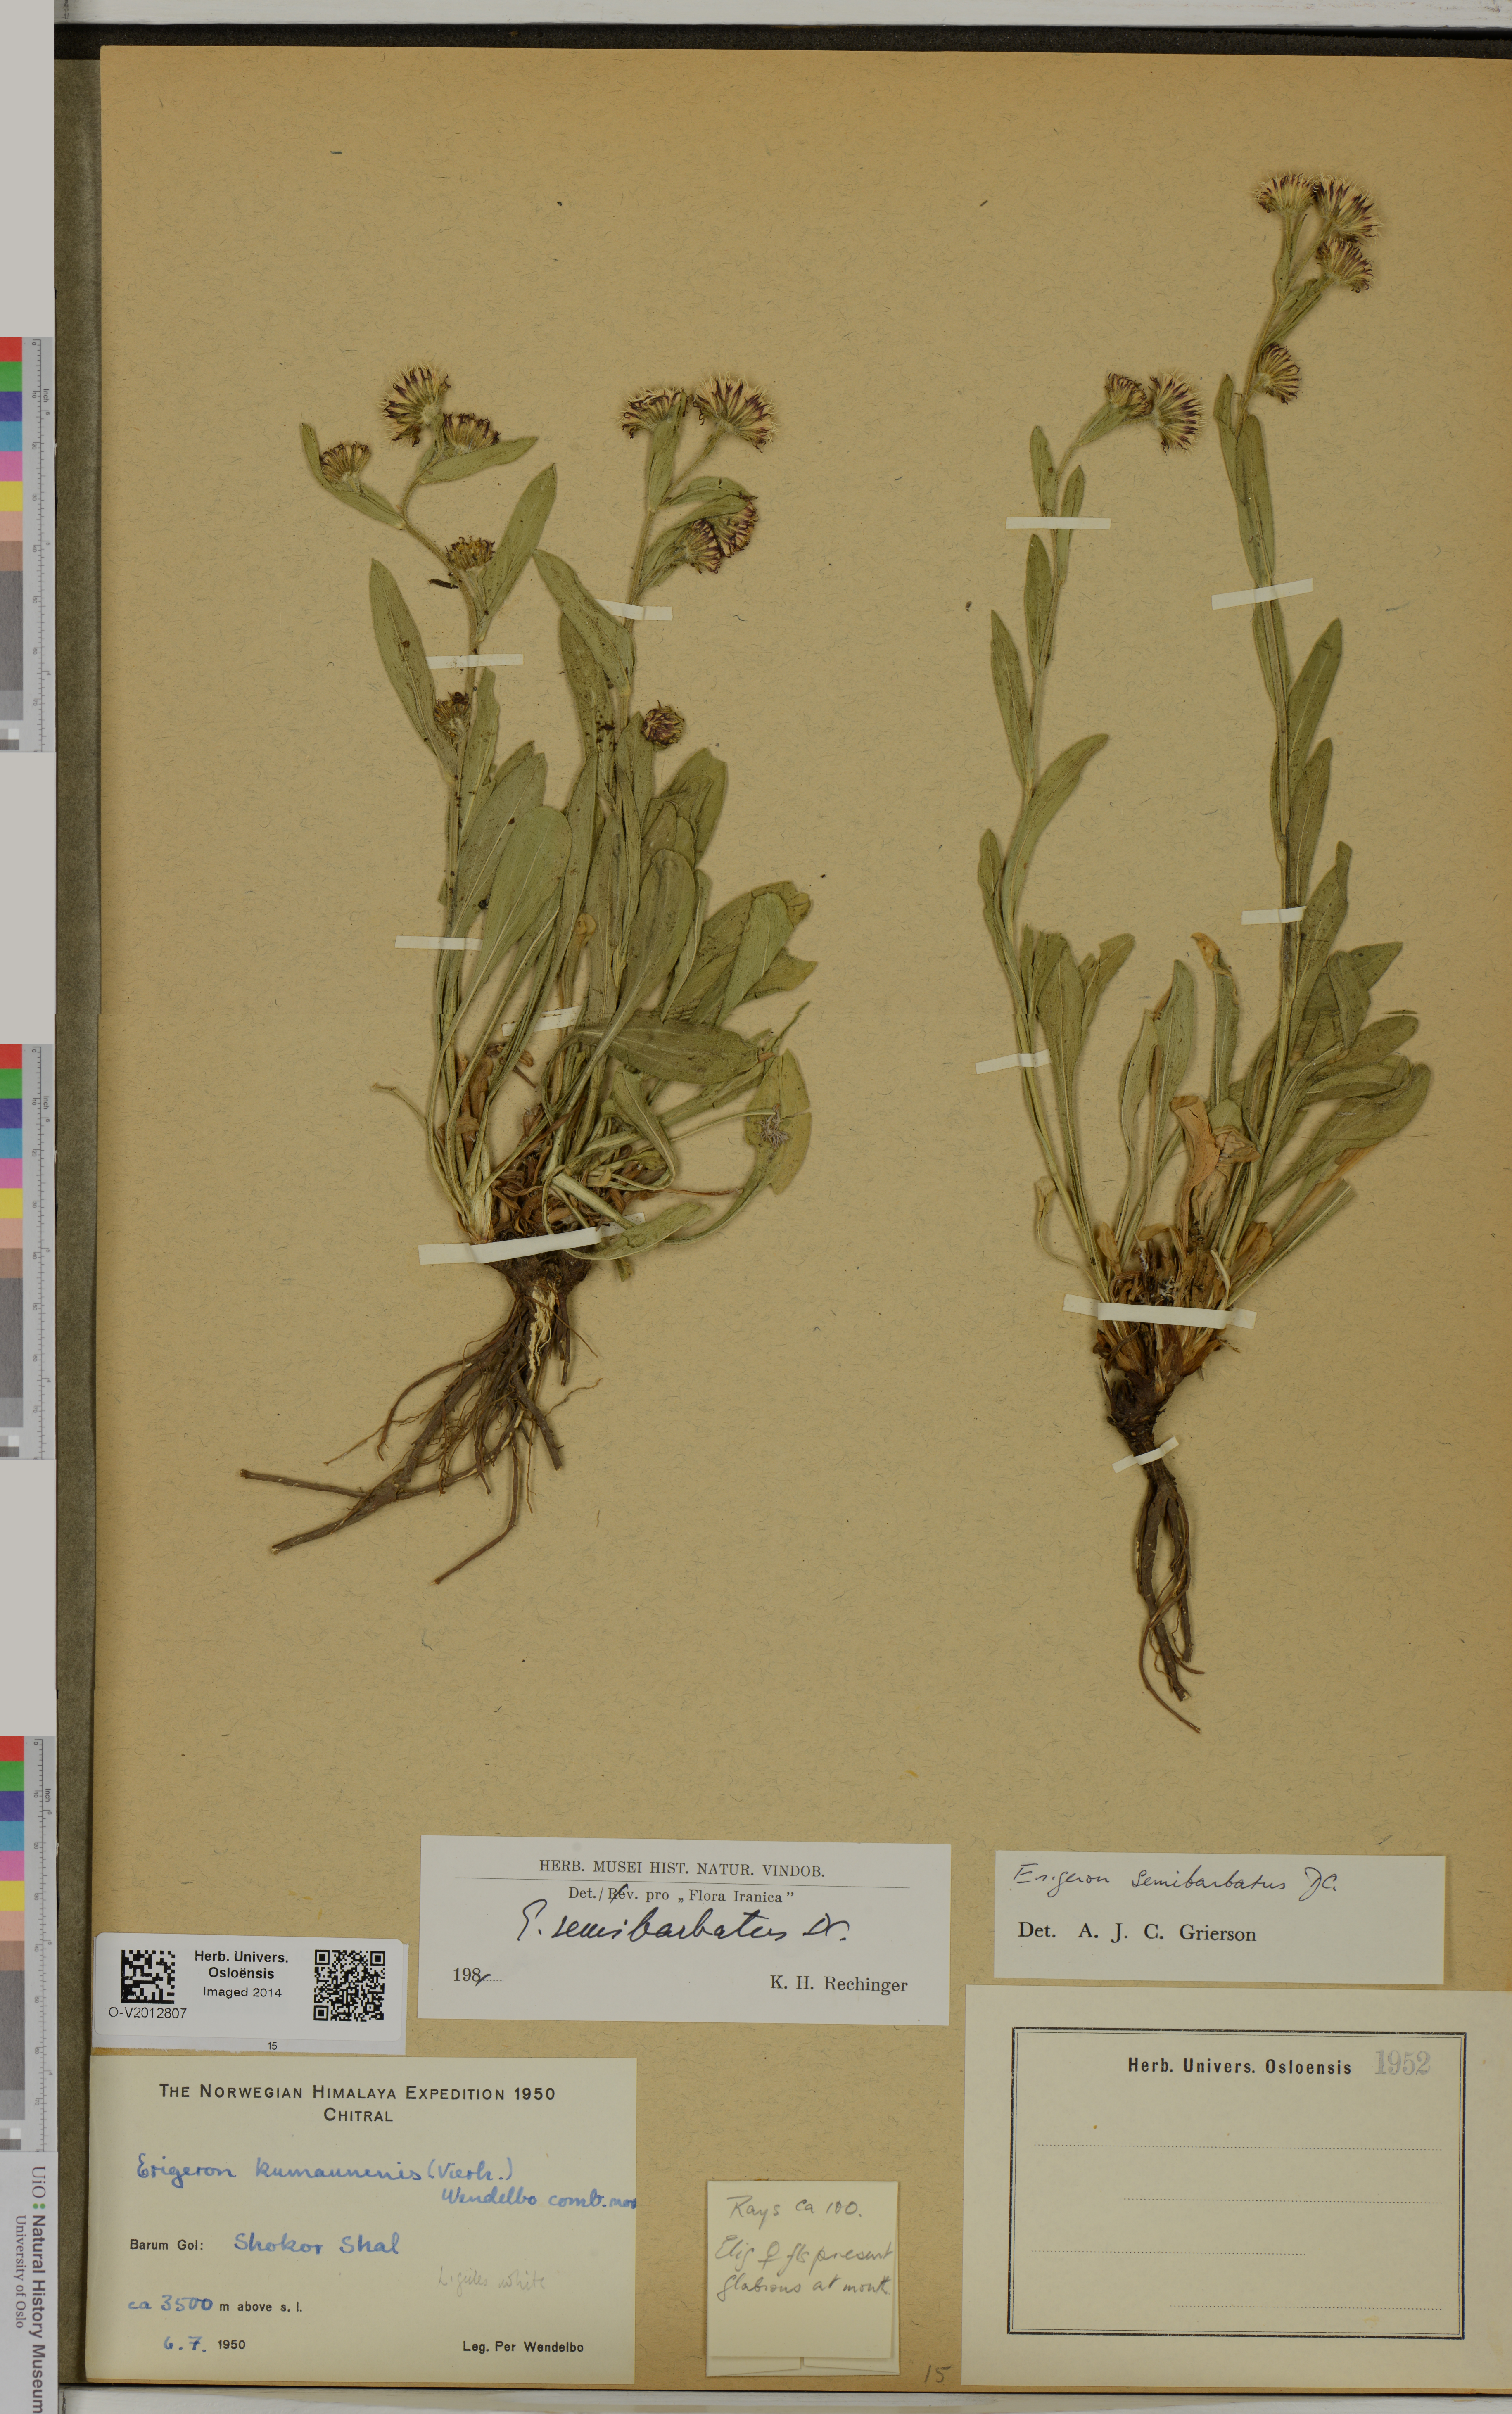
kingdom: Plantae
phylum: Tracheophyta
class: Magnoliopsida
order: Asterales
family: Asteraceae
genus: Erigeron
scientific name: Erigeron semibarbatus
